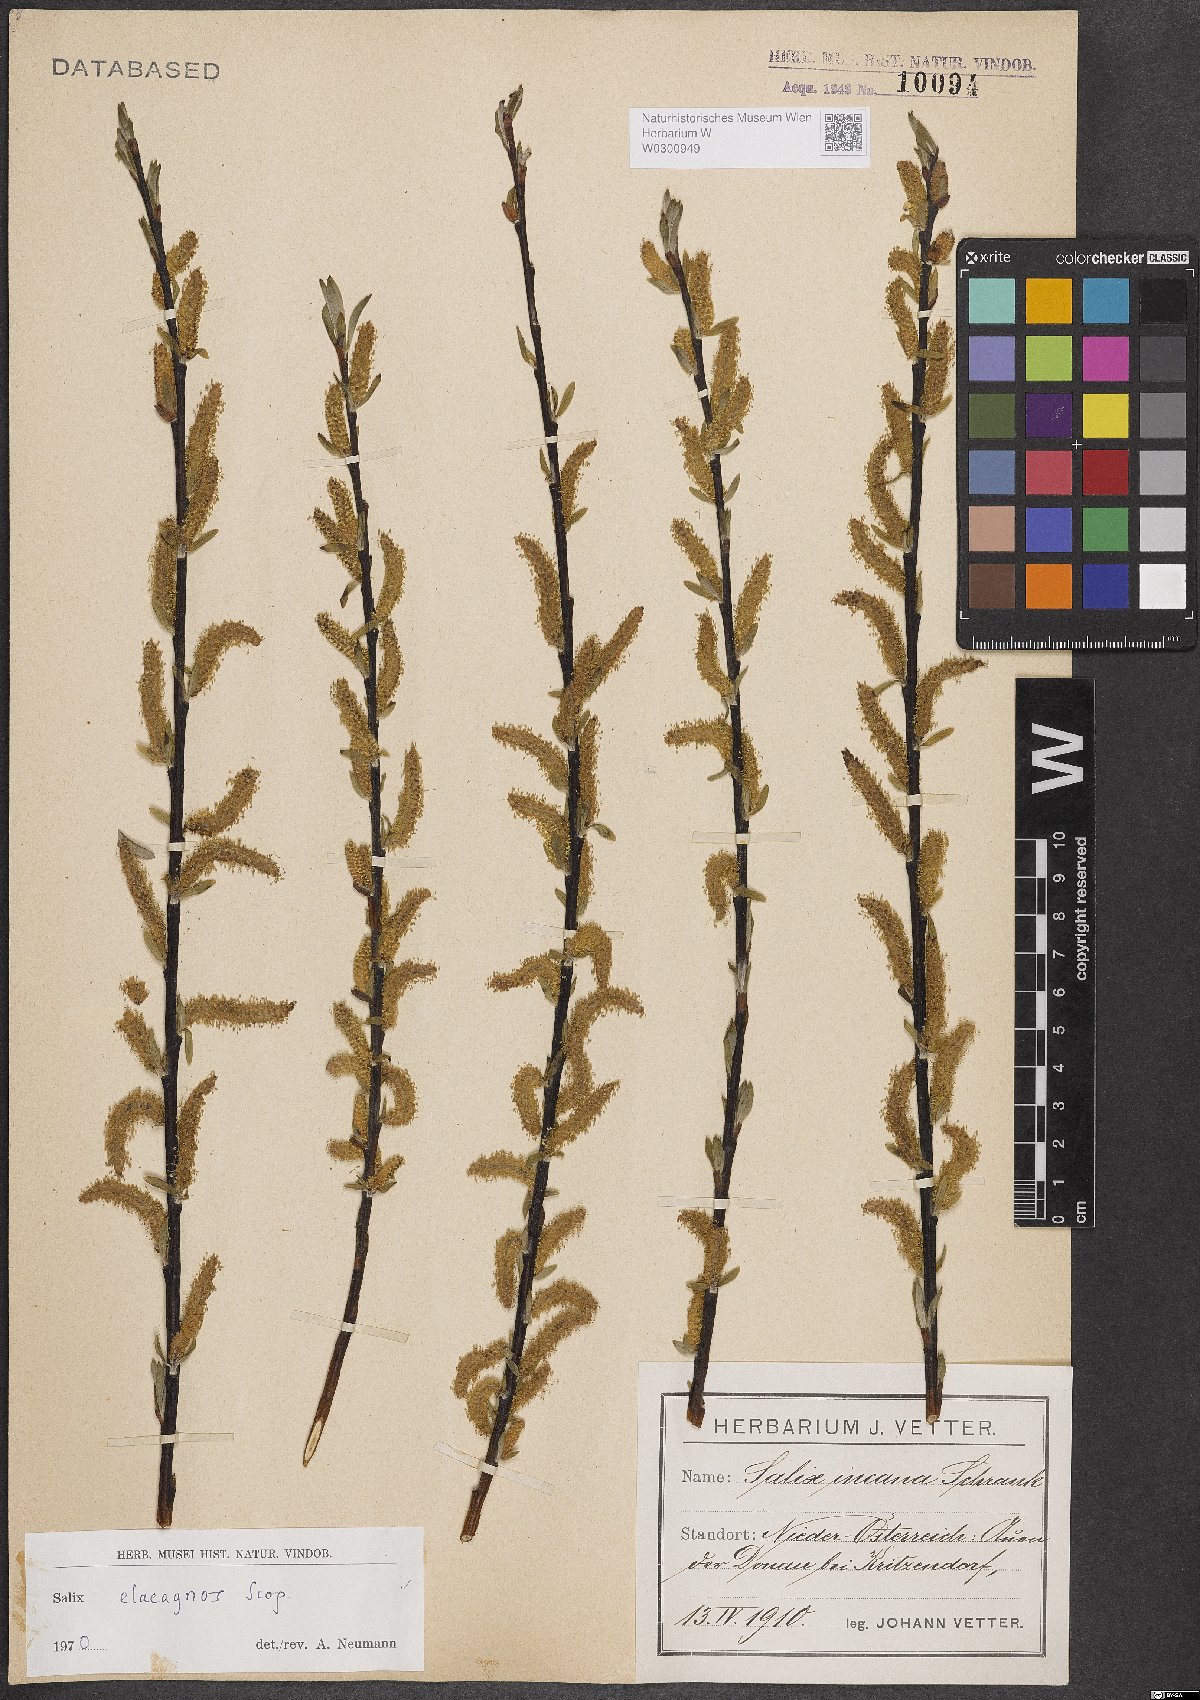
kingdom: Plantae
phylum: Tracheophyta
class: Magnoliopsida
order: Malpighiales
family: Salicaceae
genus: Salix
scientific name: Salix eleagnos
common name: Elaeagnus willow
